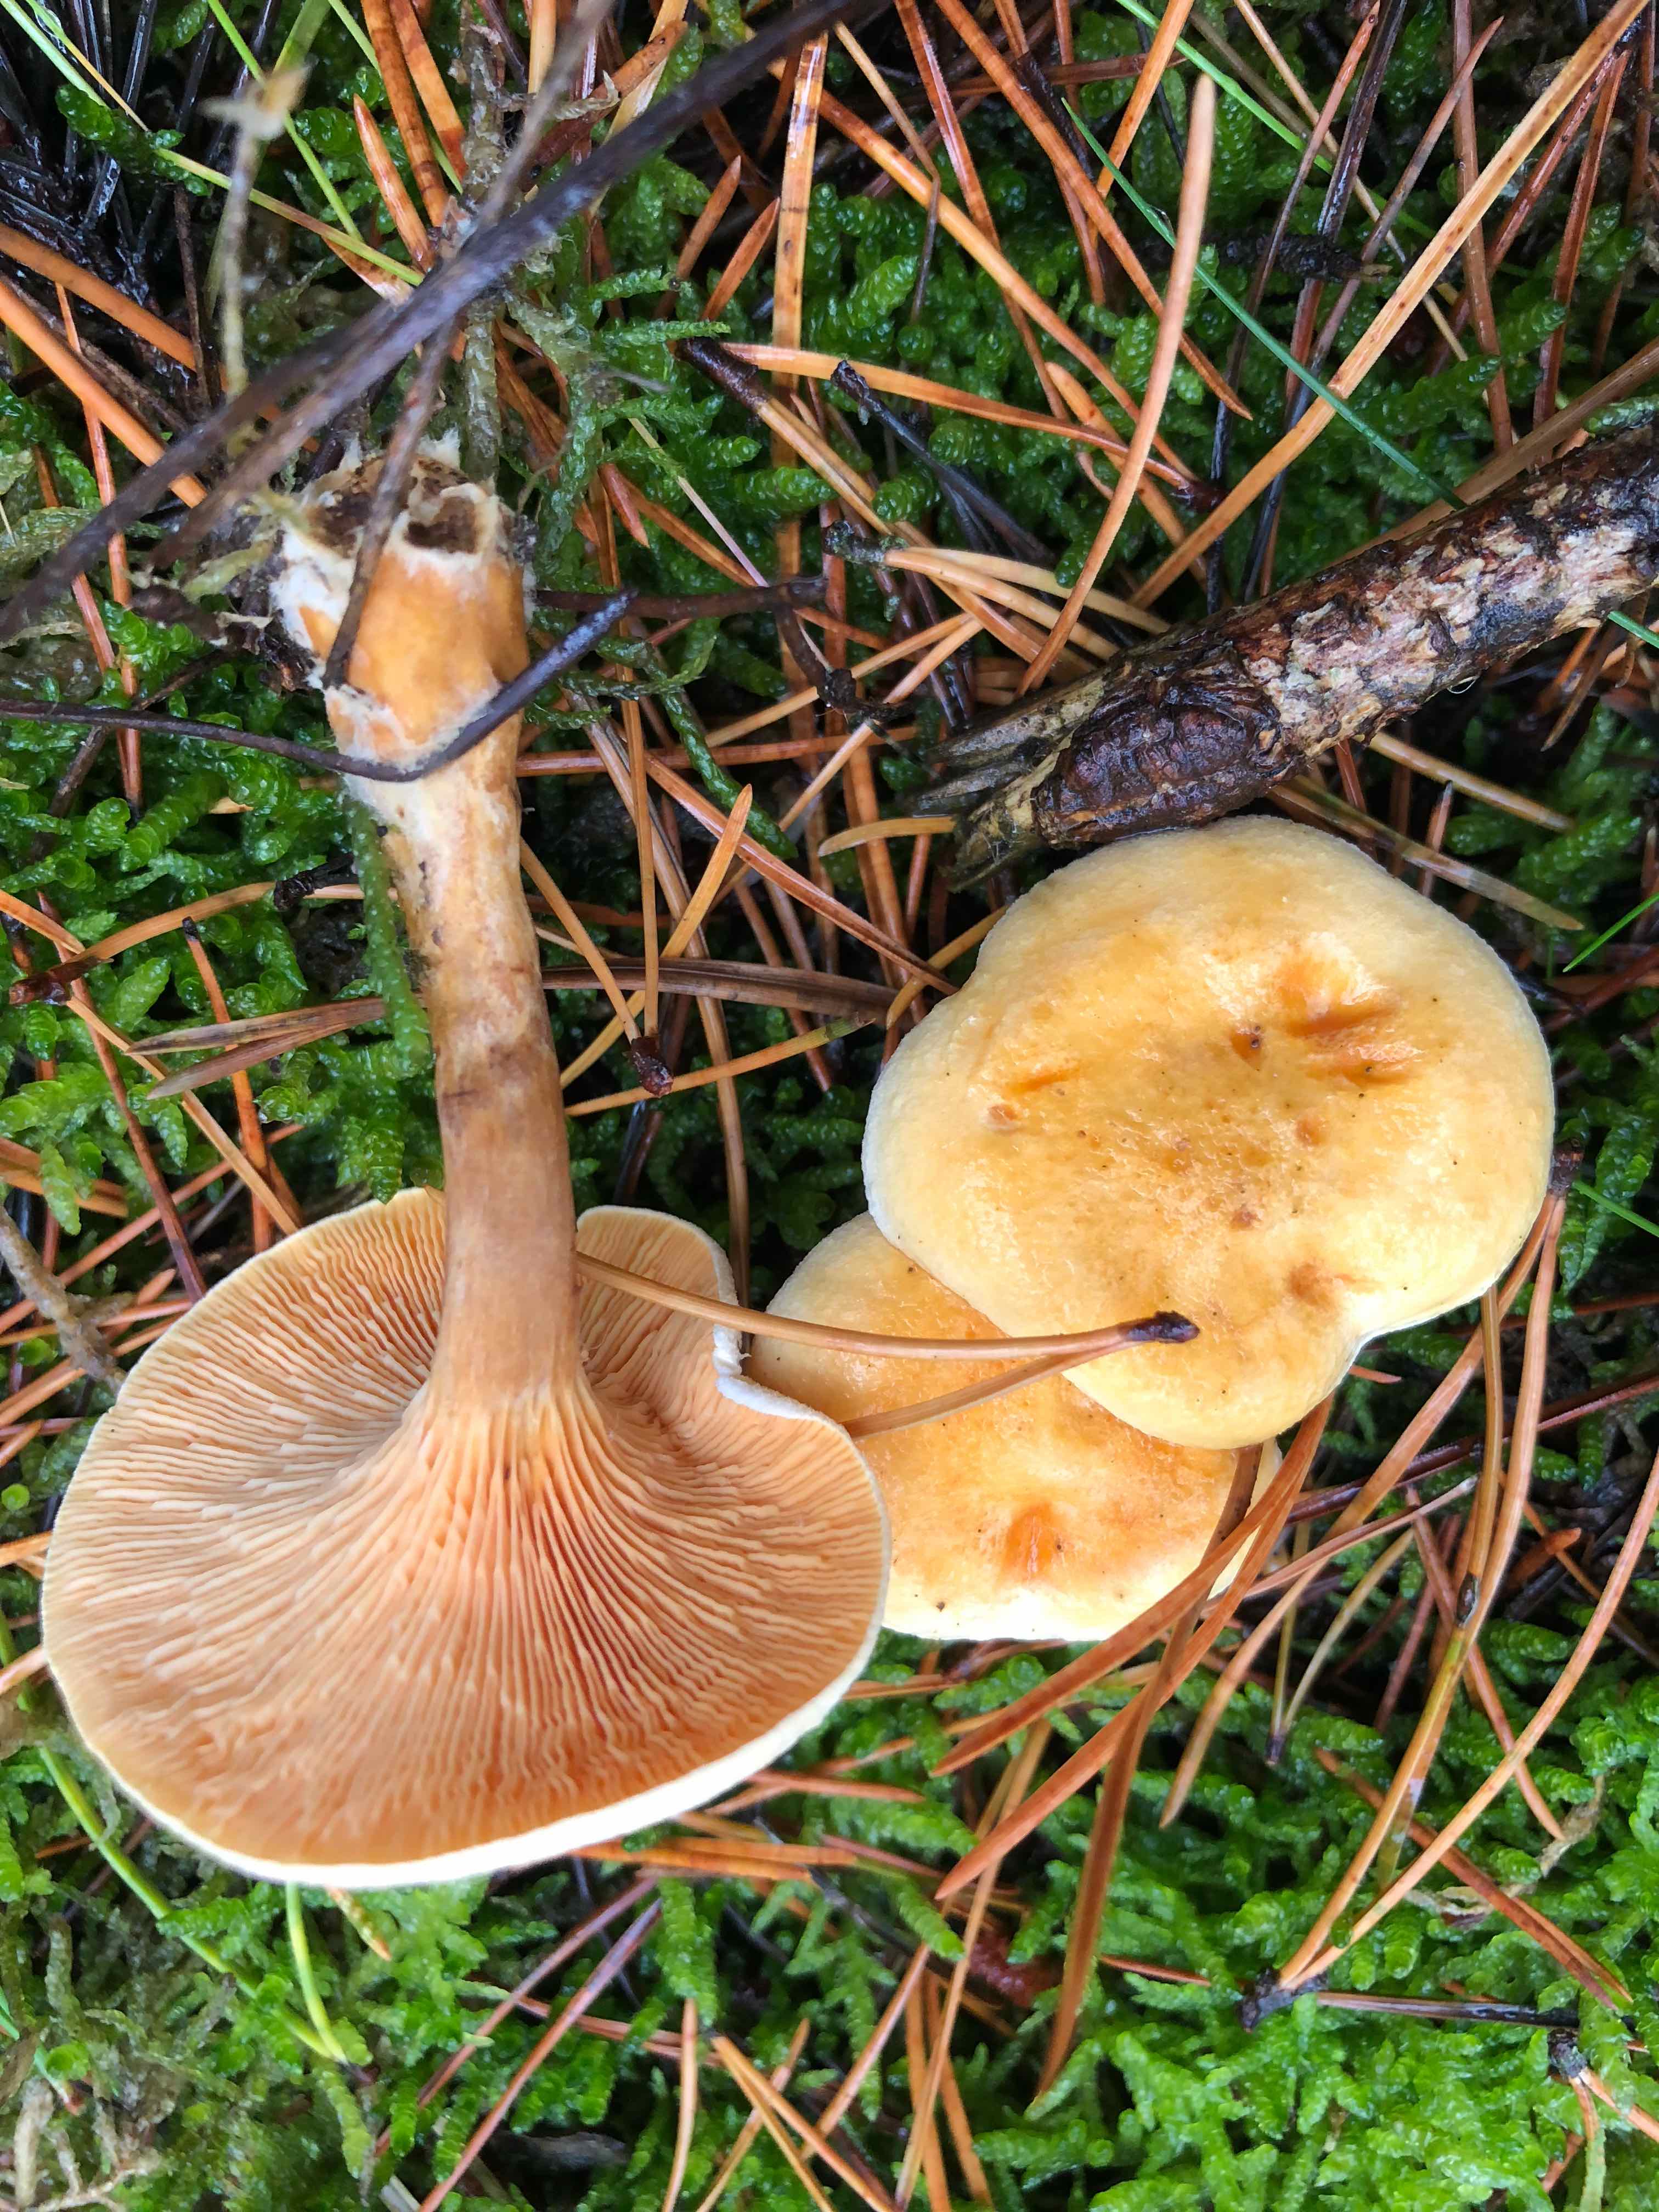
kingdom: Fungi
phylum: Basidiomycota
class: Agaricomycetes
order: Boletales
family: Hygrophoropsidaceae
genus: Hygrophoropsis
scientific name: Hygrophoropsis aurantiaca
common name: almindelig orangekantarel
